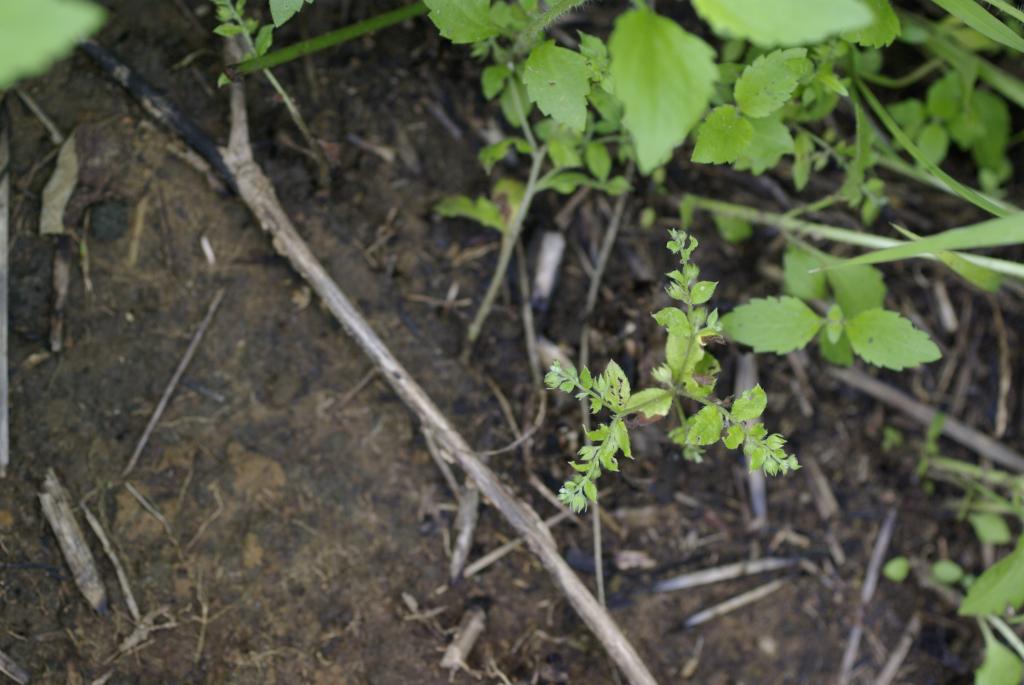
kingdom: Plantae
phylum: Tracheophyta
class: Magnoliopsida
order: Boraginales
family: Boraginaceae
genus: Bothriospermum
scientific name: Bothriospermum zeylanicum
